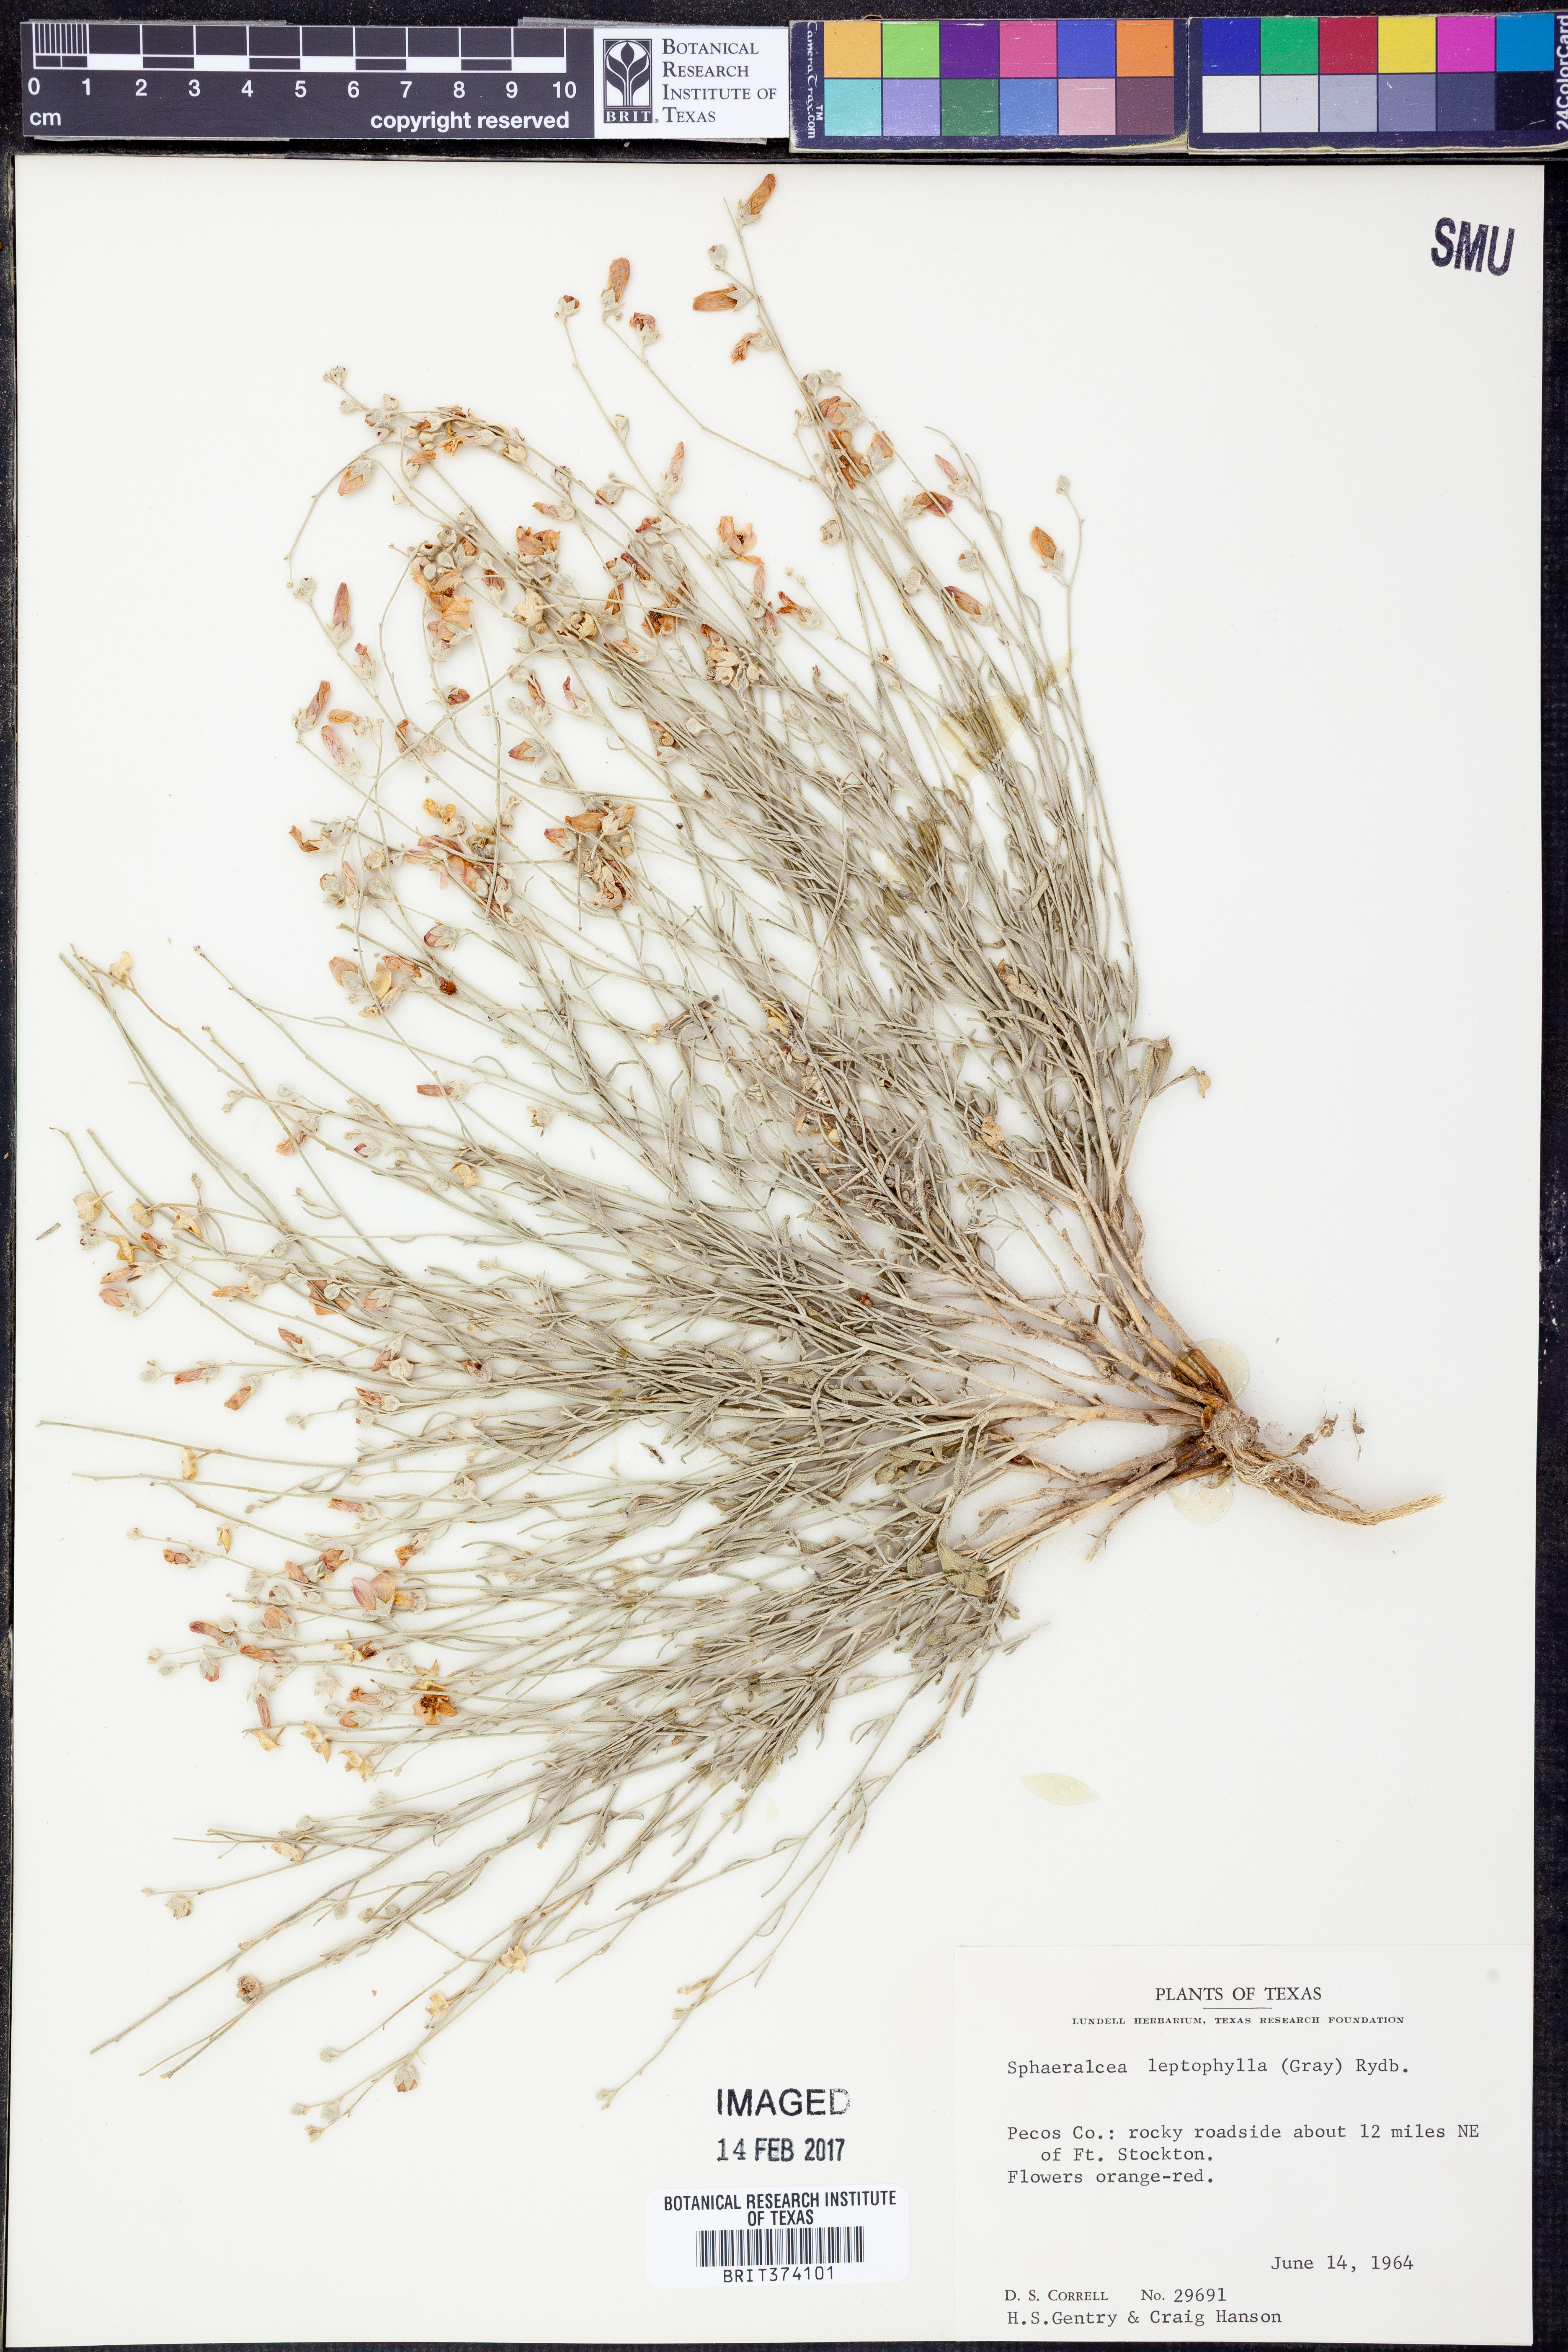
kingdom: Plantae
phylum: Tracheophyta
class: Magnoliopsida
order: Malvales
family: Malvaceae
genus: Sphaeralcea
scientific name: Sphaeralcea leptophylla
